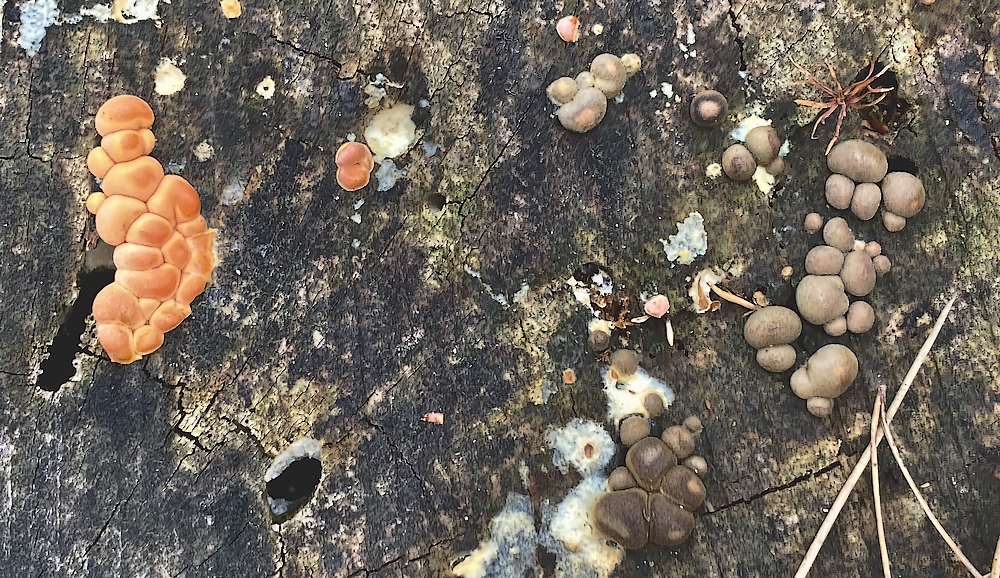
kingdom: Protozoa
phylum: Mycetozoa
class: Myxomycetes
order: Cribrariales
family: Tubiferaceae
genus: Lycogala
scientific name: Lycogala epidendrum
